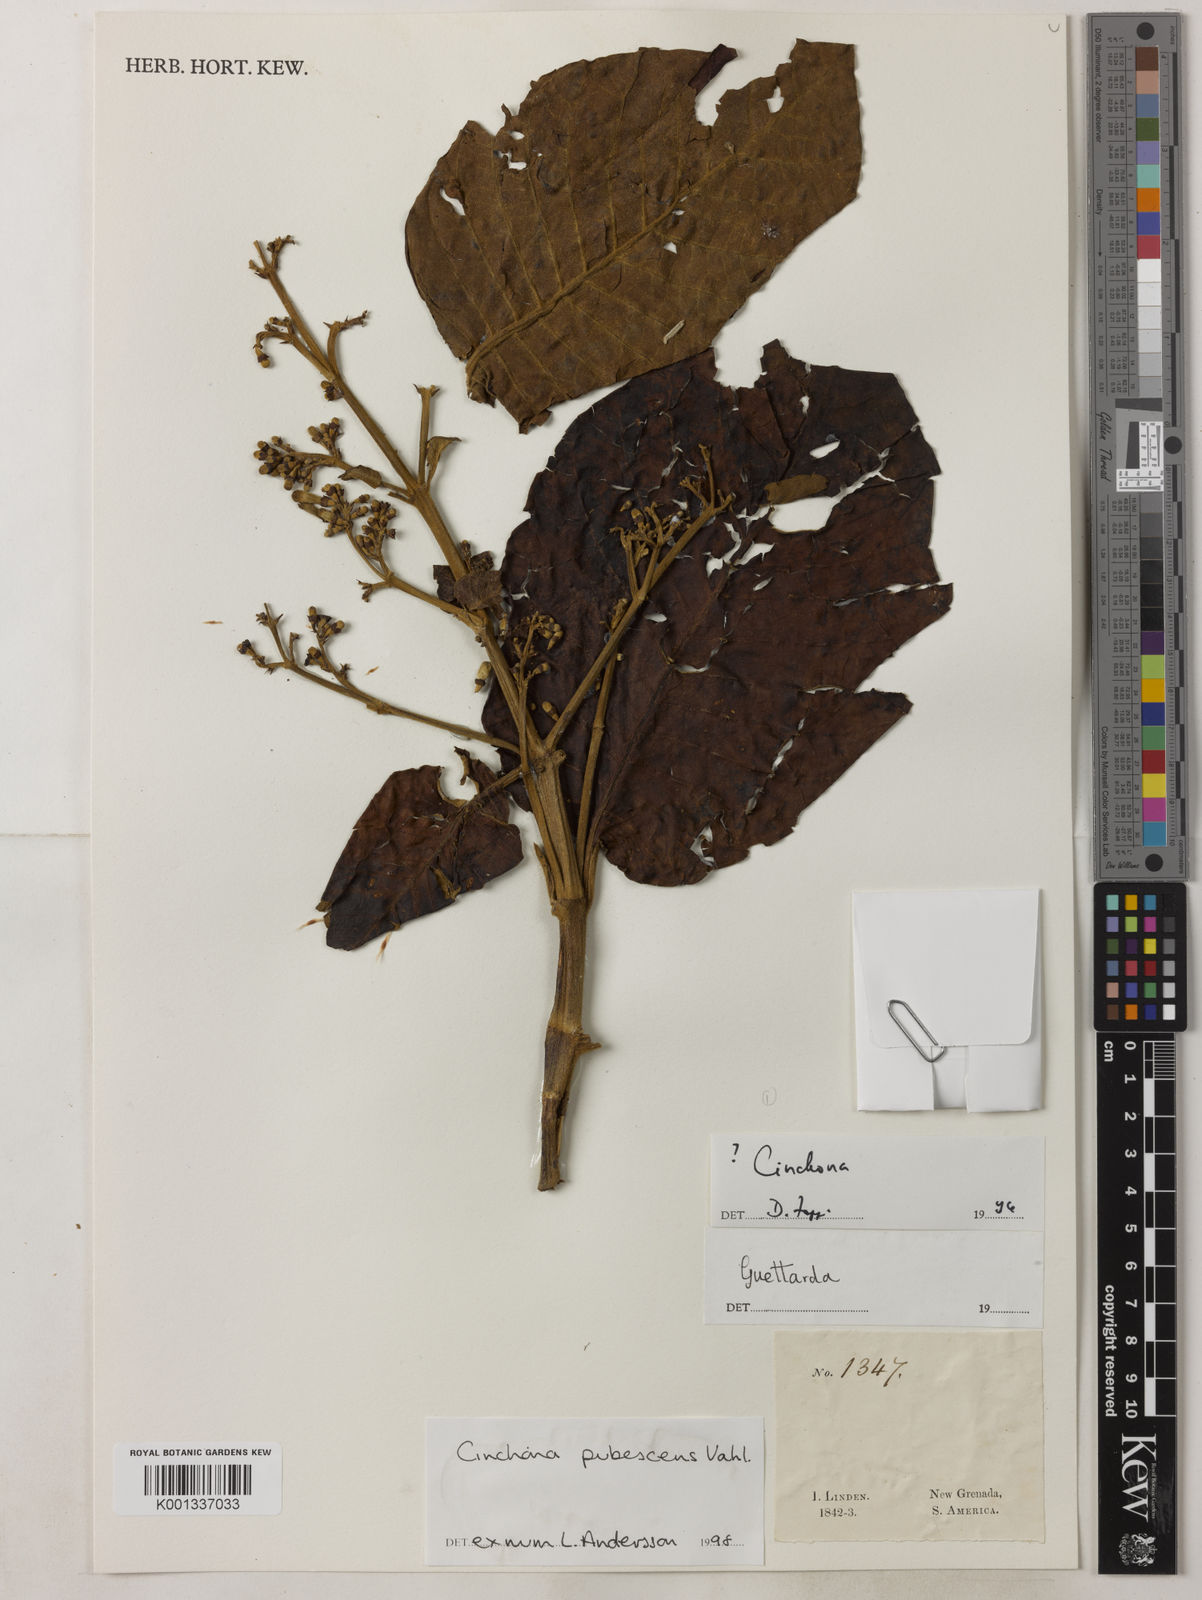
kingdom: Plantae
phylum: Tracheophyta
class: Magnoliopsida
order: Gentianales
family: Rubiaceae
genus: Cinchona
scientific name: Cinchona pubescens
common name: Quinine
